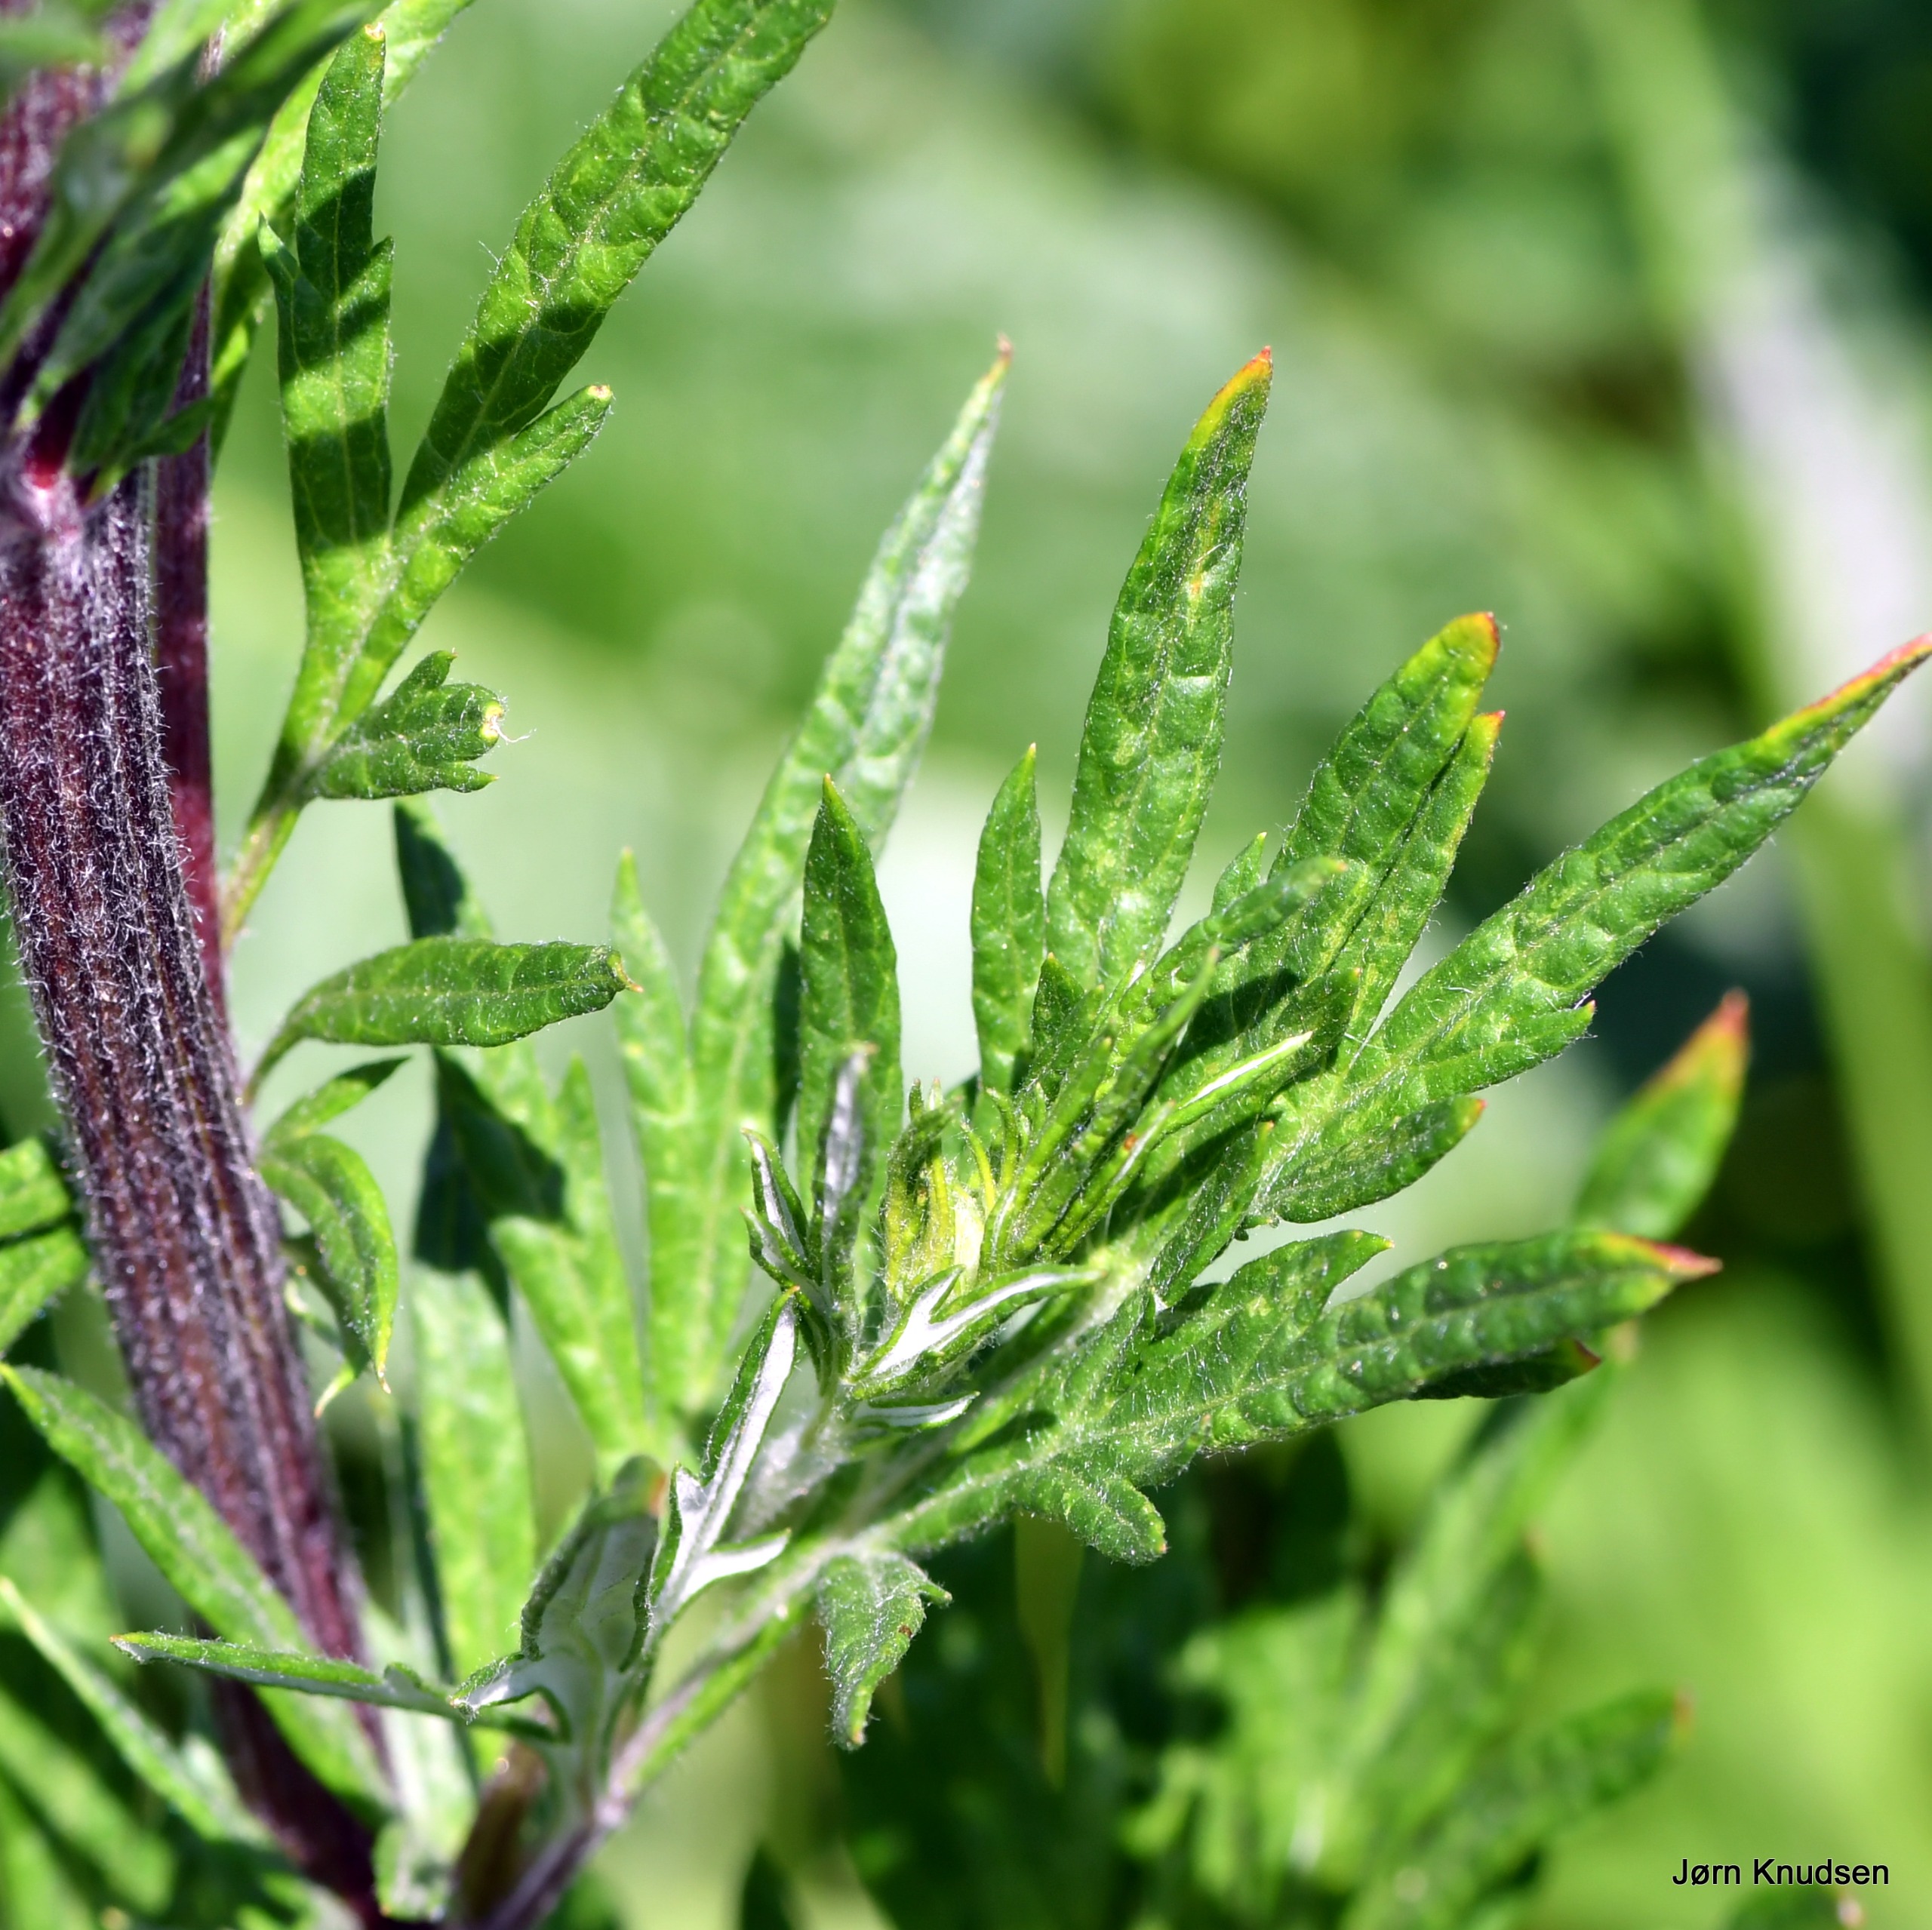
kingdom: Plantae
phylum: Tracheophyta
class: Magnoliopsida
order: Asterales
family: Asteraceae
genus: Artemisia
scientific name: Artemisia vulgaris
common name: Grå-bynke
